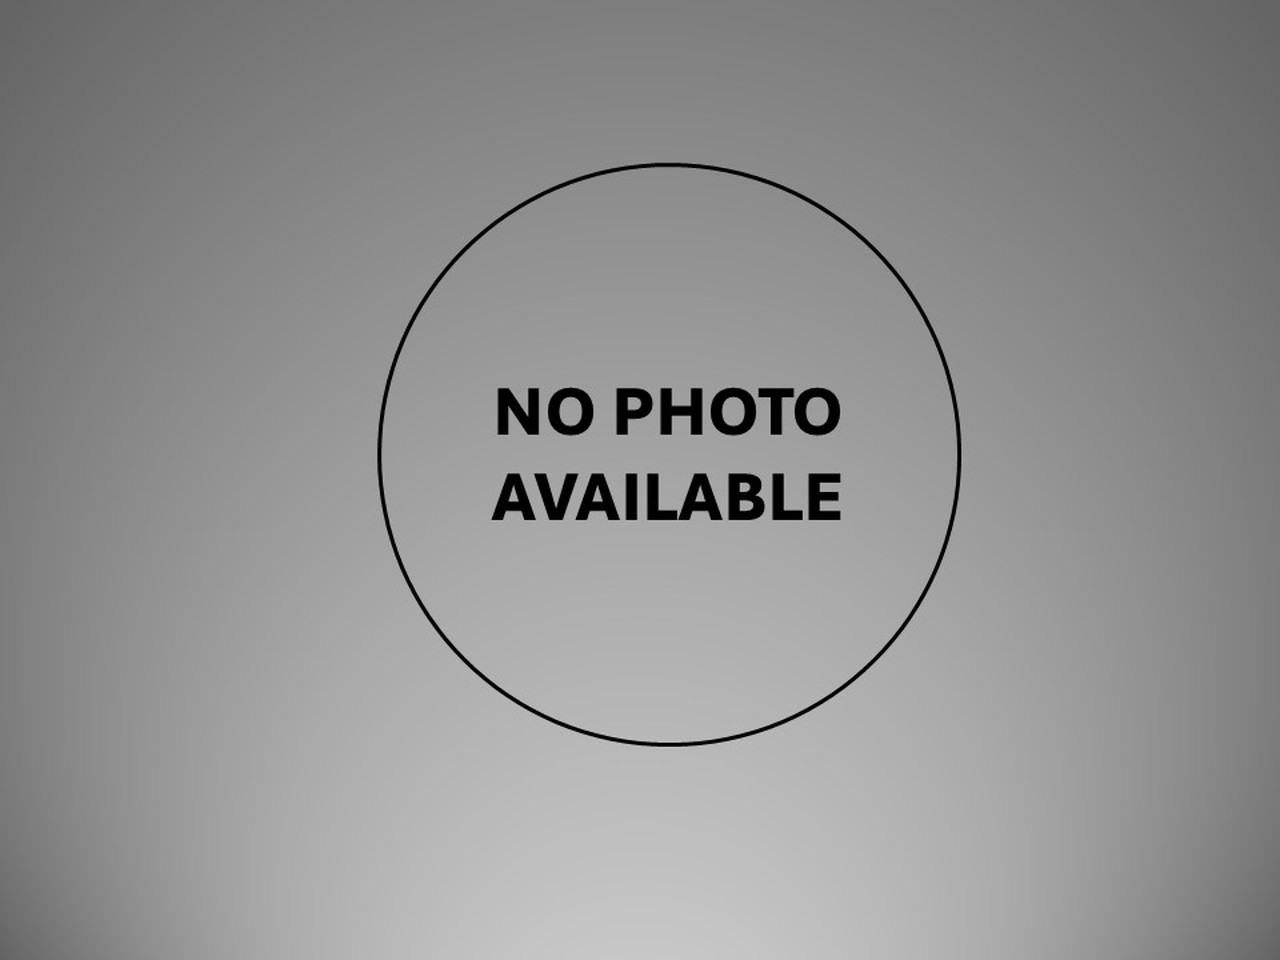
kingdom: Animalia
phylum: Chordata
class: Mammalia
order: Cetacea
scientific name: Cetacea
